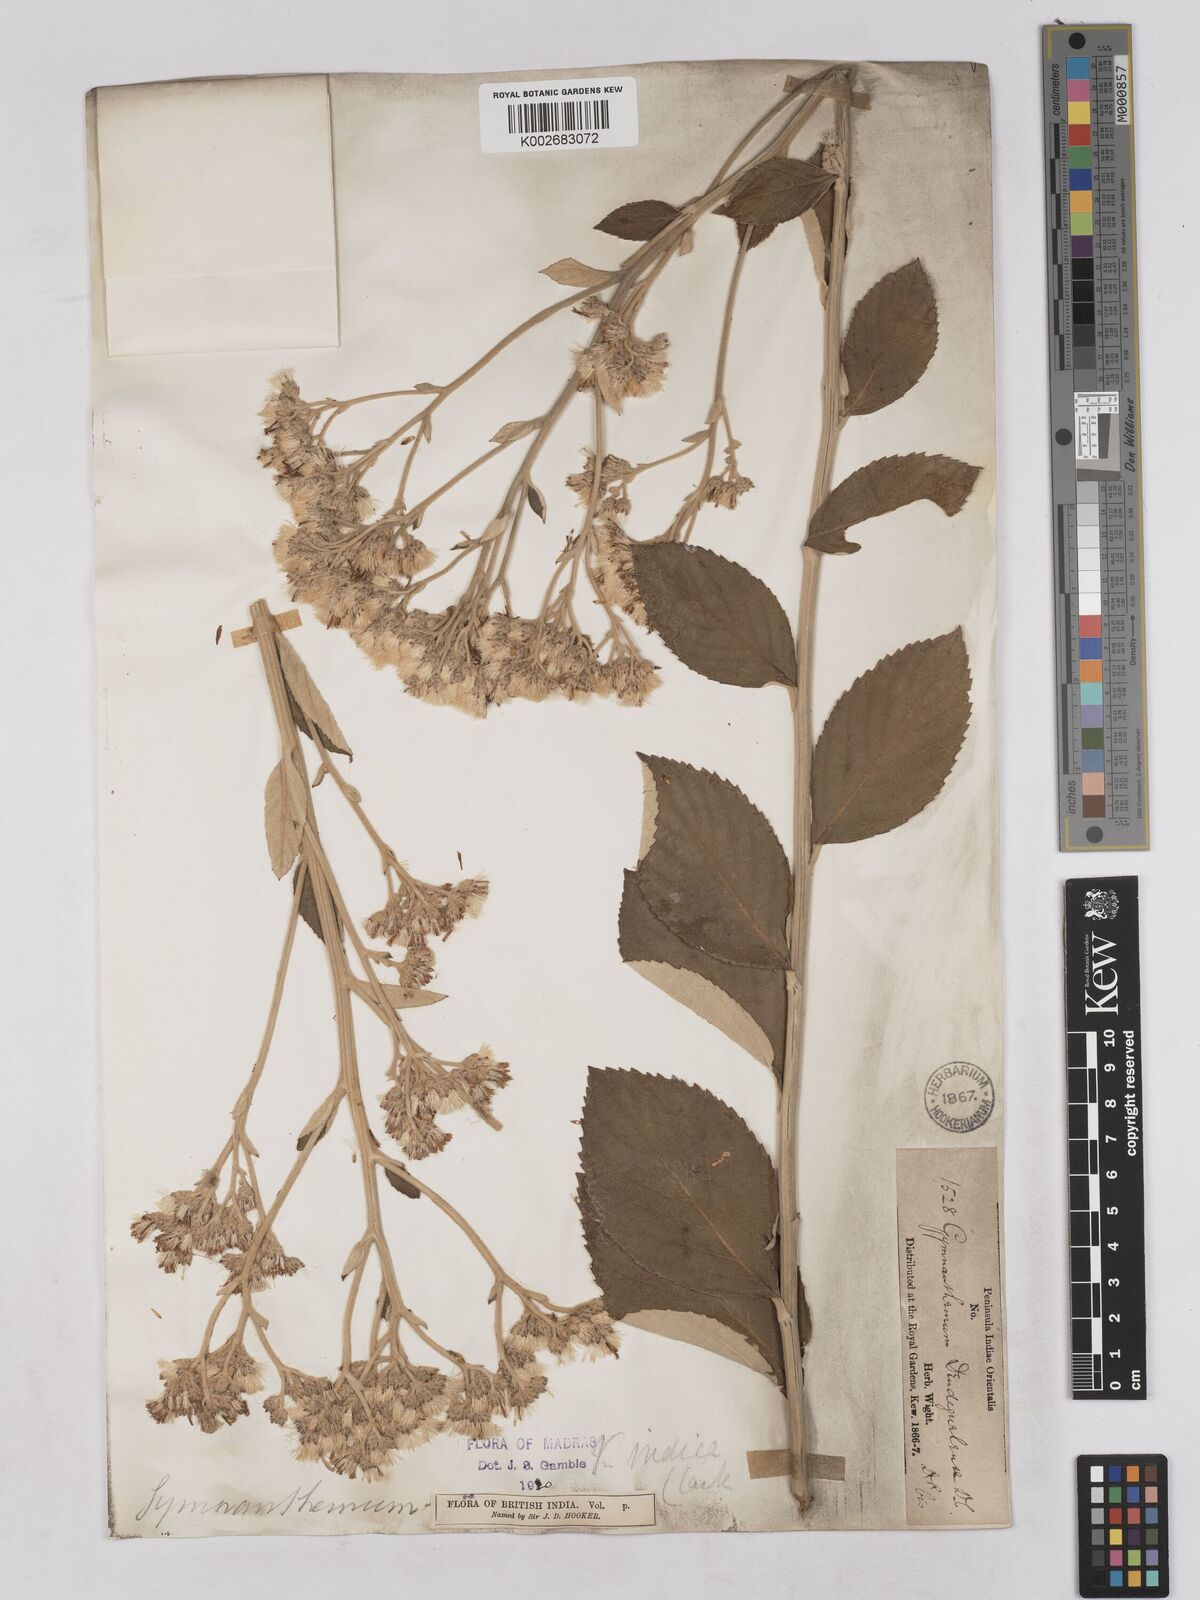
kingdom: Plantae
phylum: Tracheophyta
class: Magnoliopsida
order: Asterales
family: Asteraceae
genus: Acilepis
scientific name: Acilepis dendigulensis
